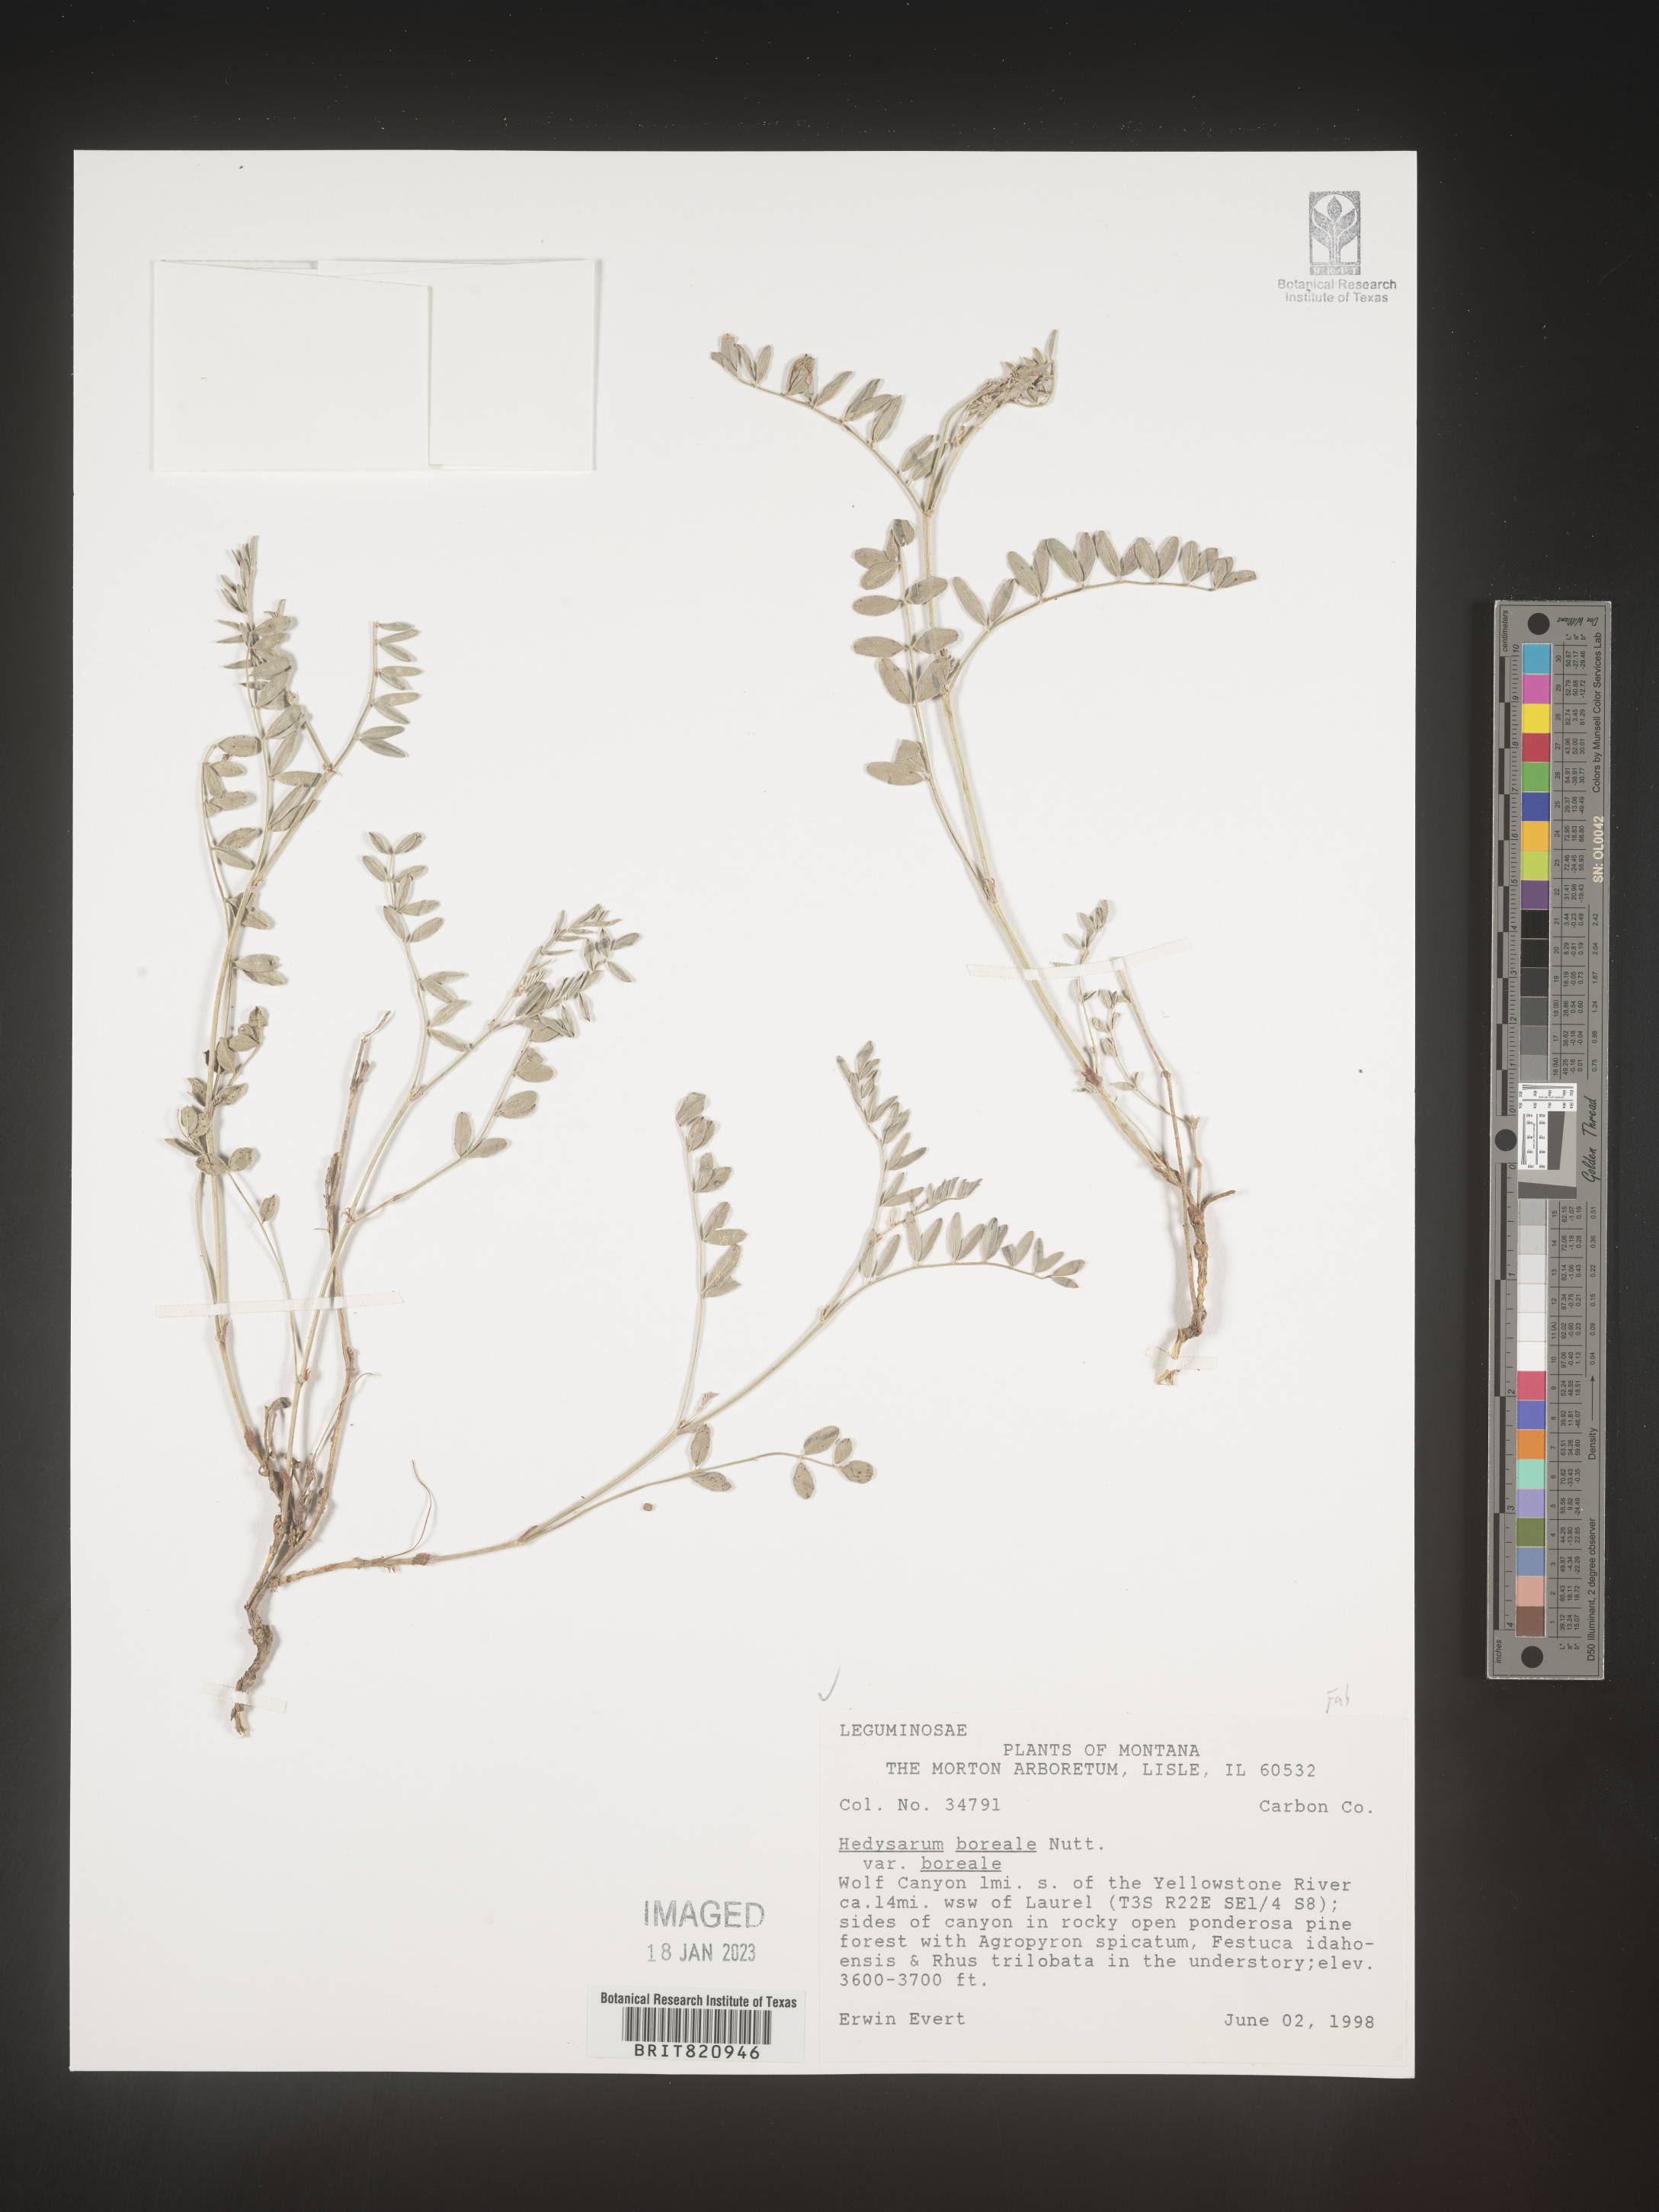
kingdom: Plantae
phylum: Tracheophyta
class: Magnoliopsida
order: Fabales
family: Fabaceae
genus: Hedysarum
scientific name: Hedysarum boreale
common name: Northern sweet-vetch
